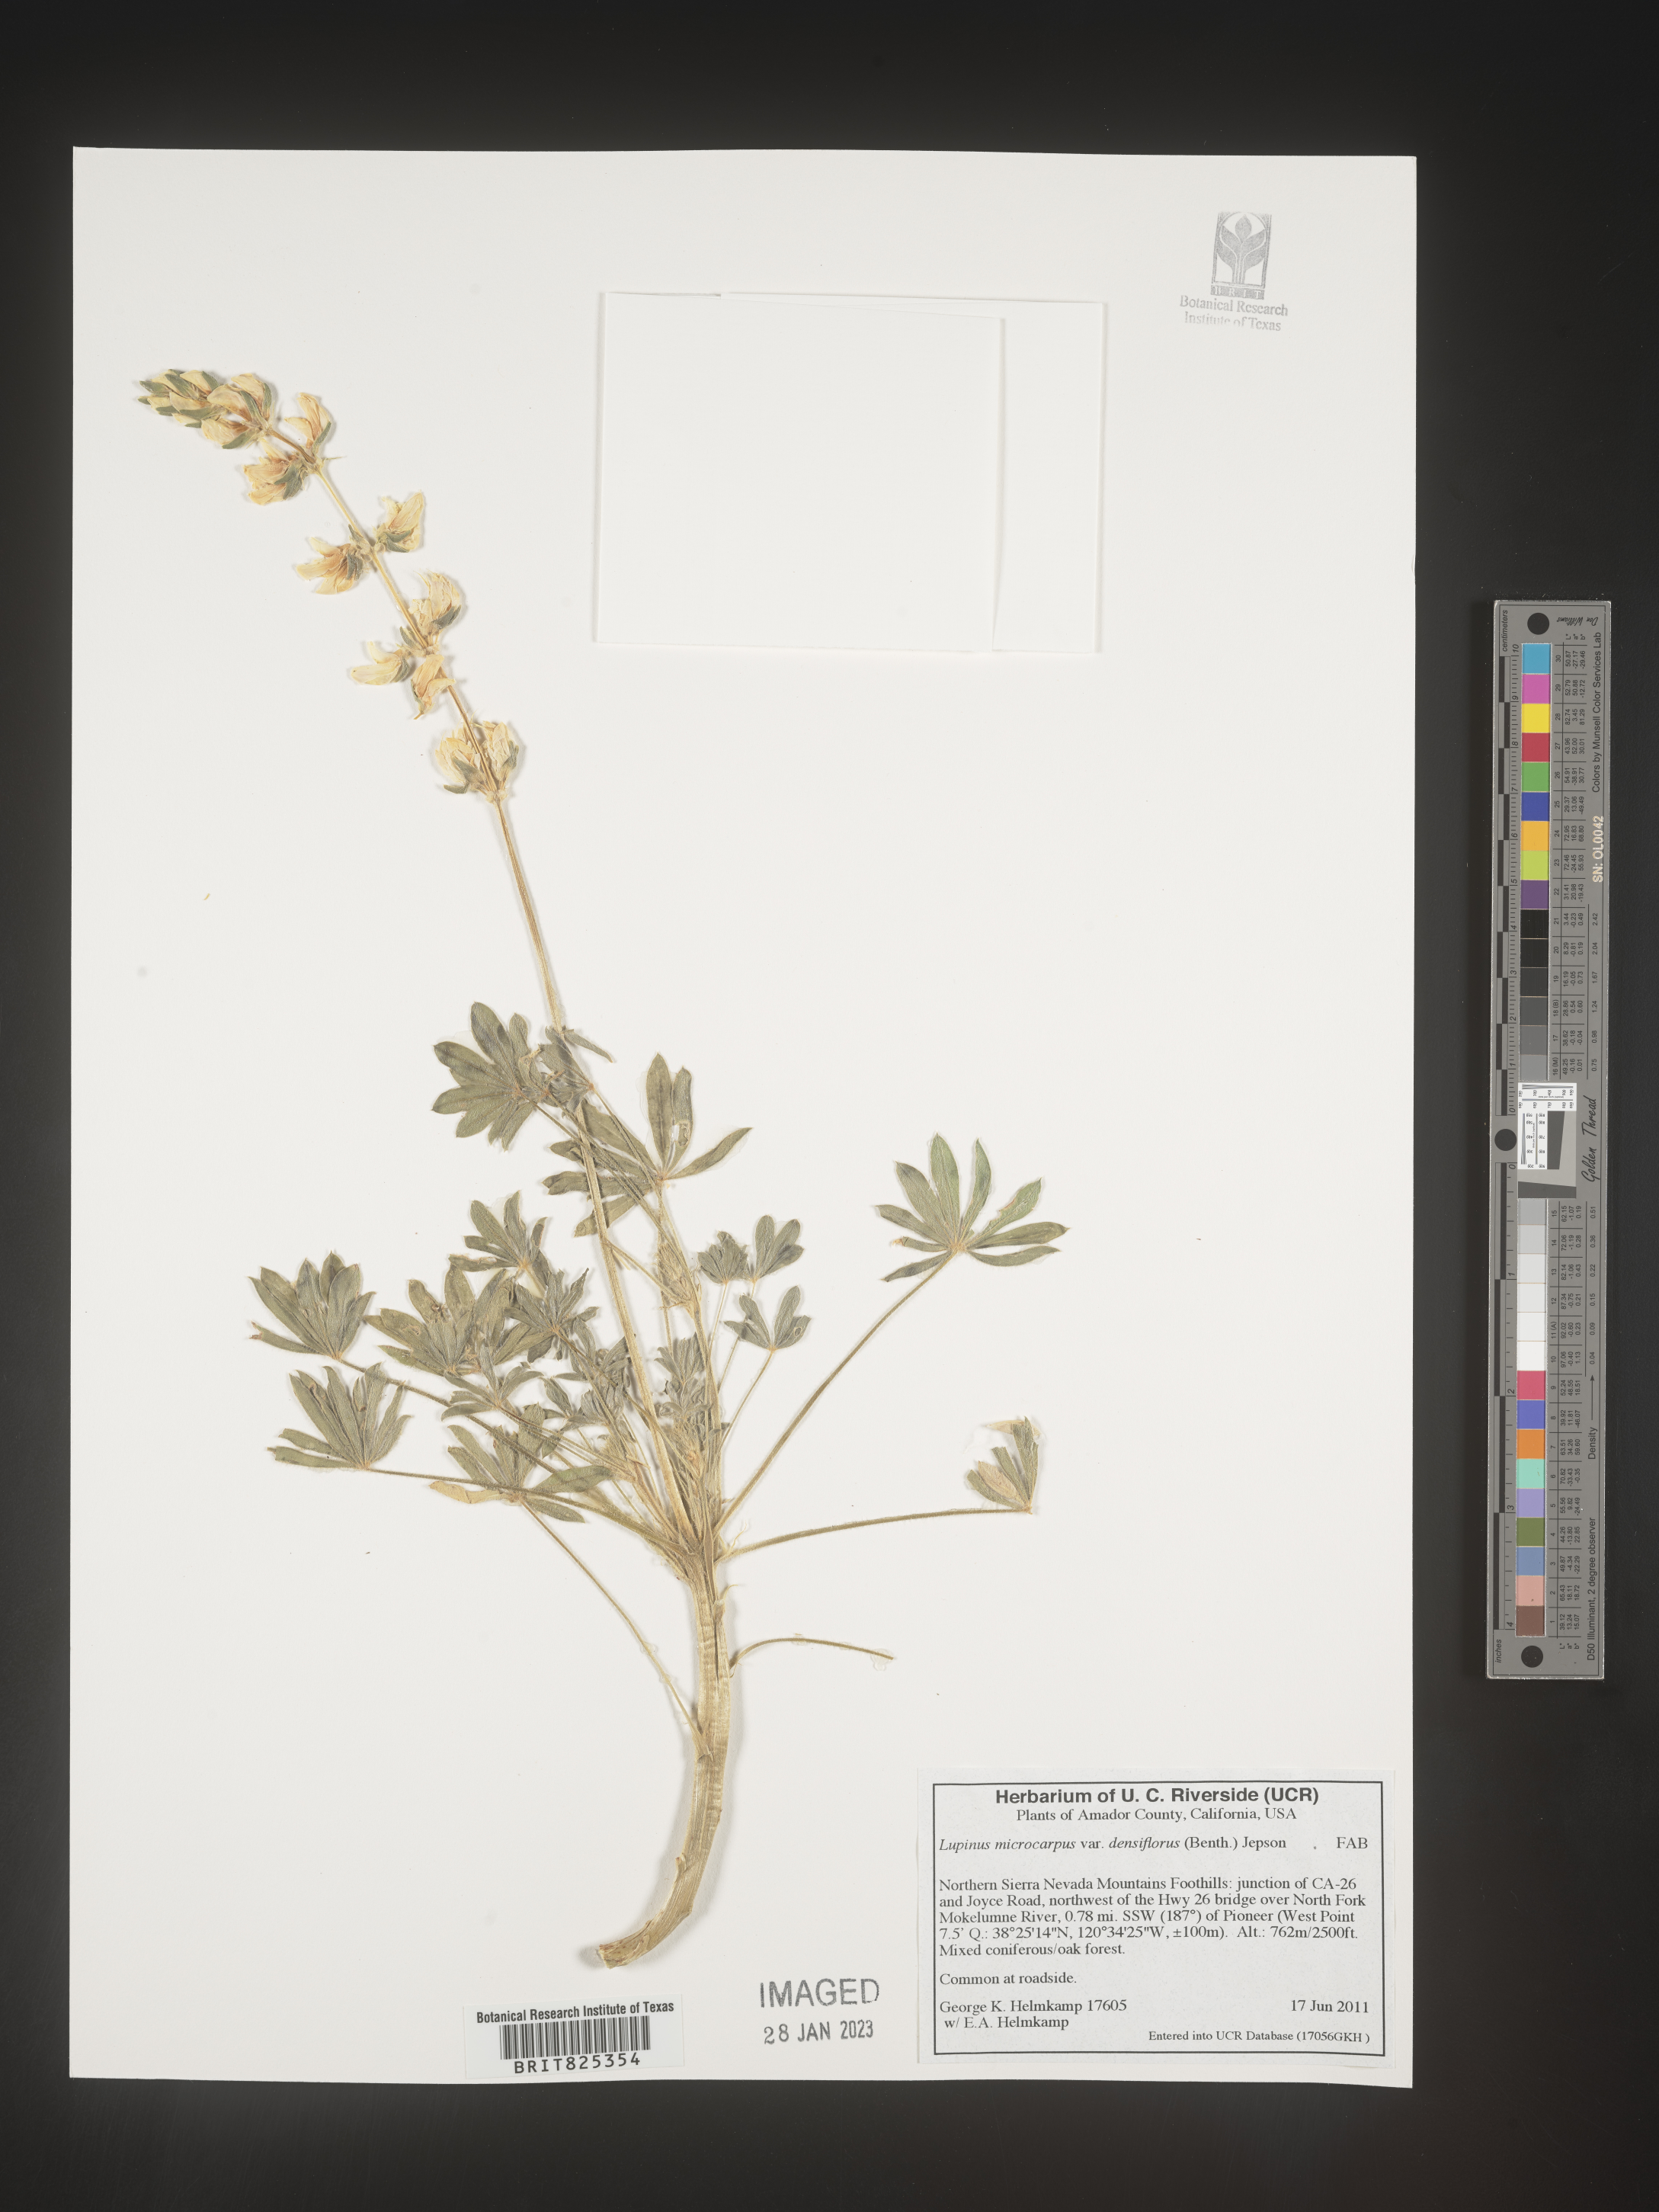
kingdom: Plantae
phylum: Tracheophyta
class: Magnoliopsida
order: Fabales
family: Fabaceae
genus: Lupinus
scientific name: Lupinus
